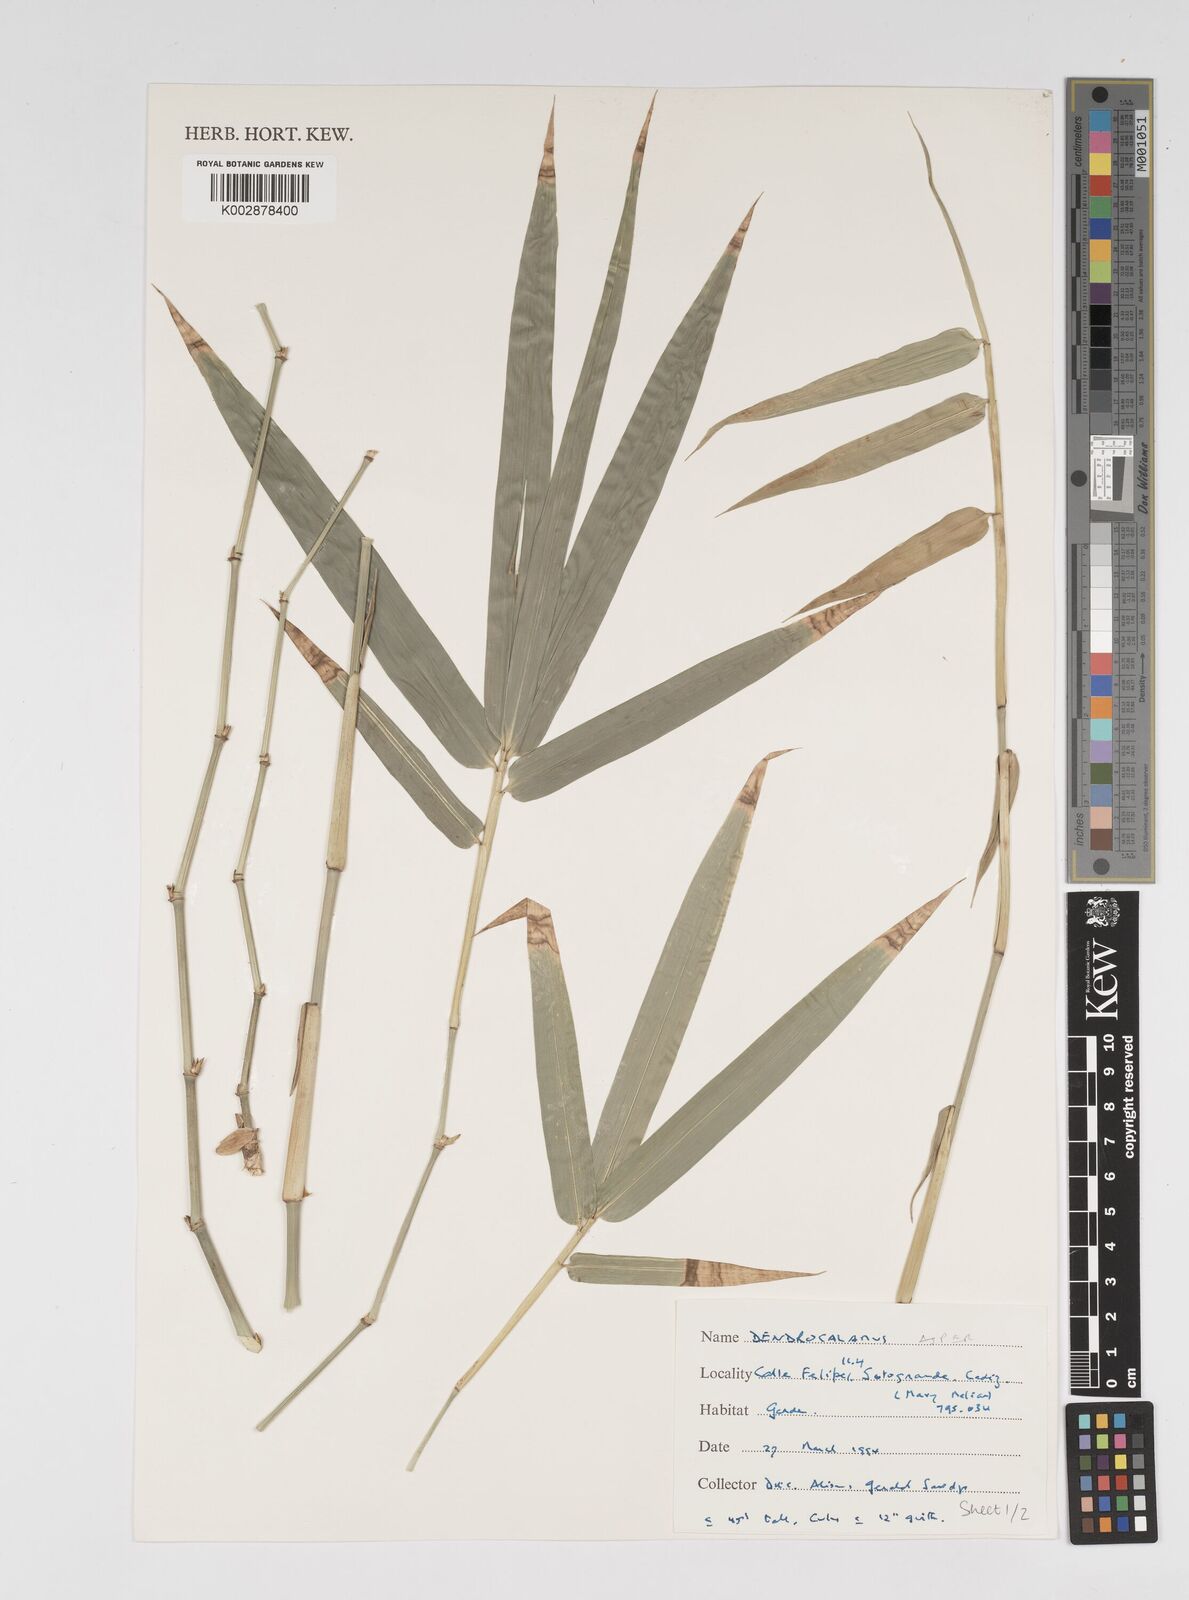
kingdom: Plantae
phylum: Tracheophyta
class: Liliopsida
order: Poales
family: Poaceae
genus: Dendrocalamus
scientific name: Dendrocalamus asper
